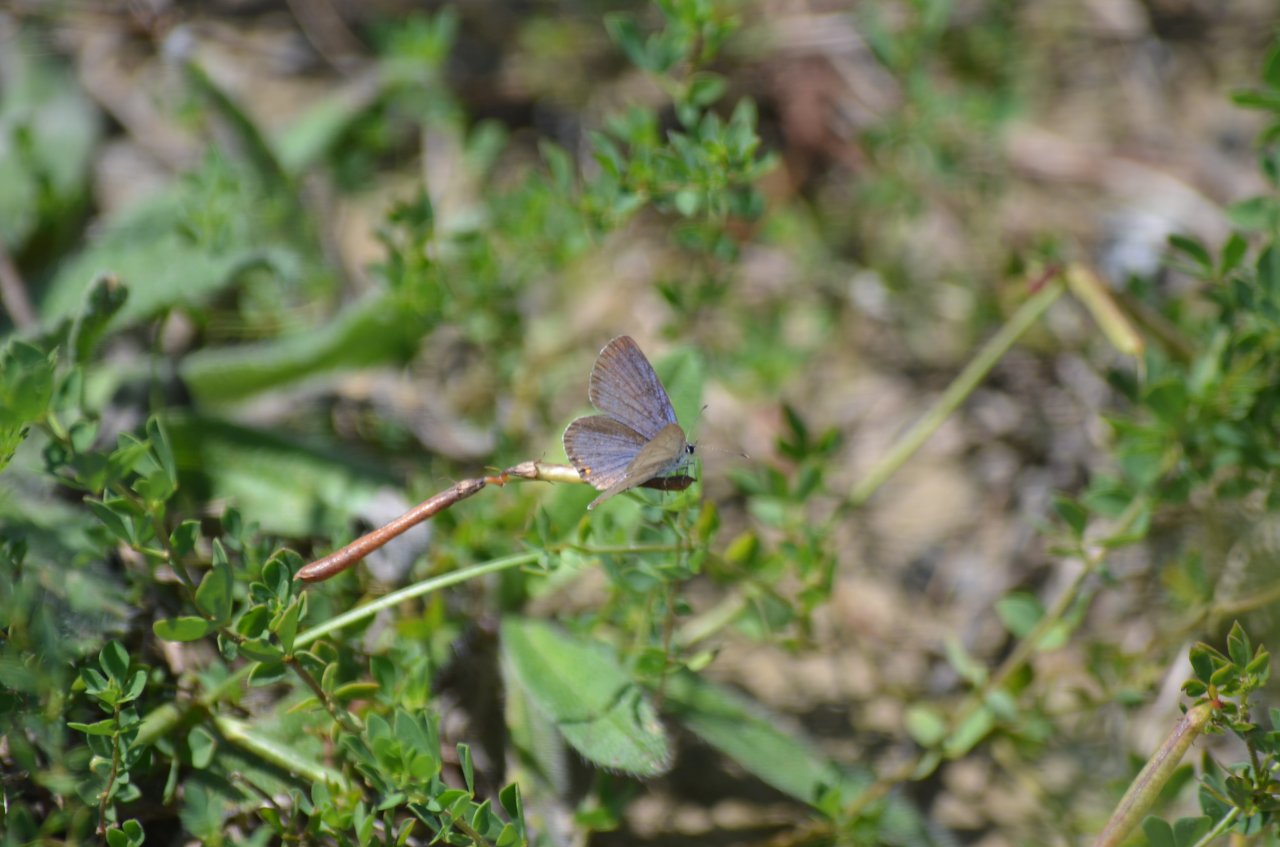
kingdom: Animalia
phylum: Arthropoda
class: Insecta
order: Lepidoptera
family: Lycaenidae
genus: Elkalyce
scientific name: Elkalyce comyntas
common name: Eastern Tailed-Blue
